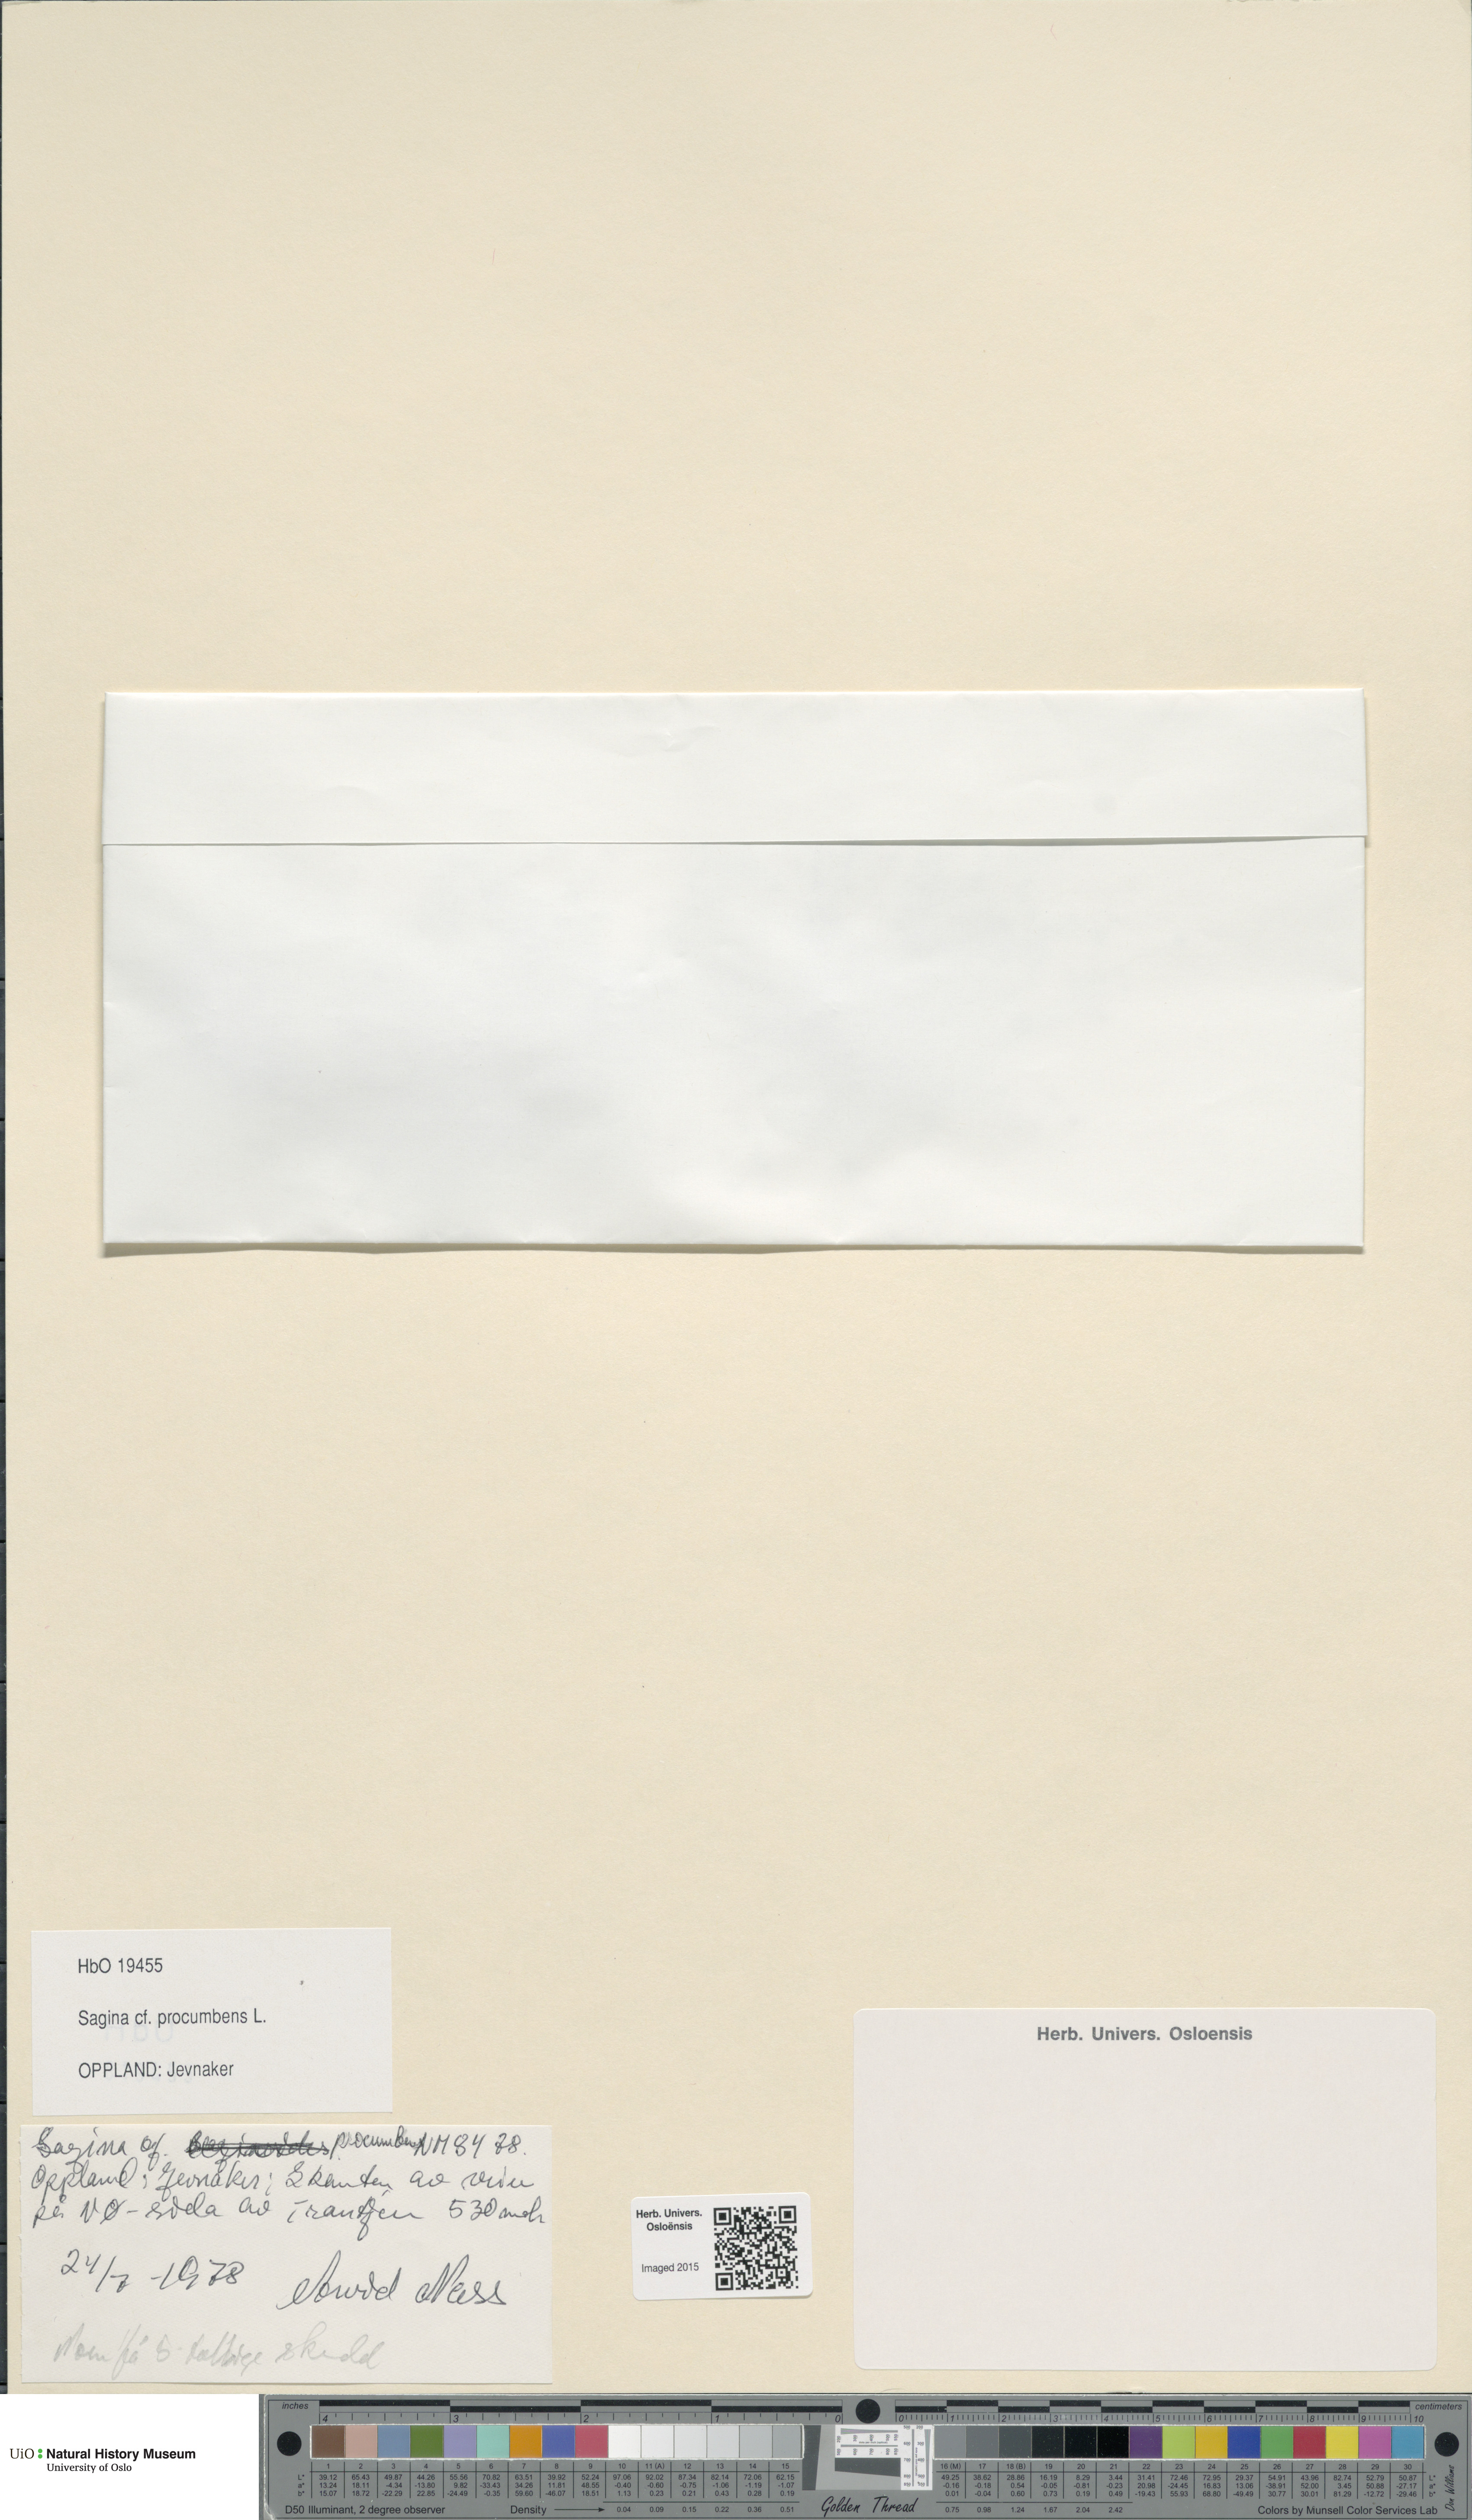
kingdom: Plantae
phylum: Tracheophyta
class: Magnoliopsida
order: Caryophyllales
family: Caryophyllaceae
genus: Sagina
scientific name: Sagina procumbens
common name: Procumbent pearlwort
